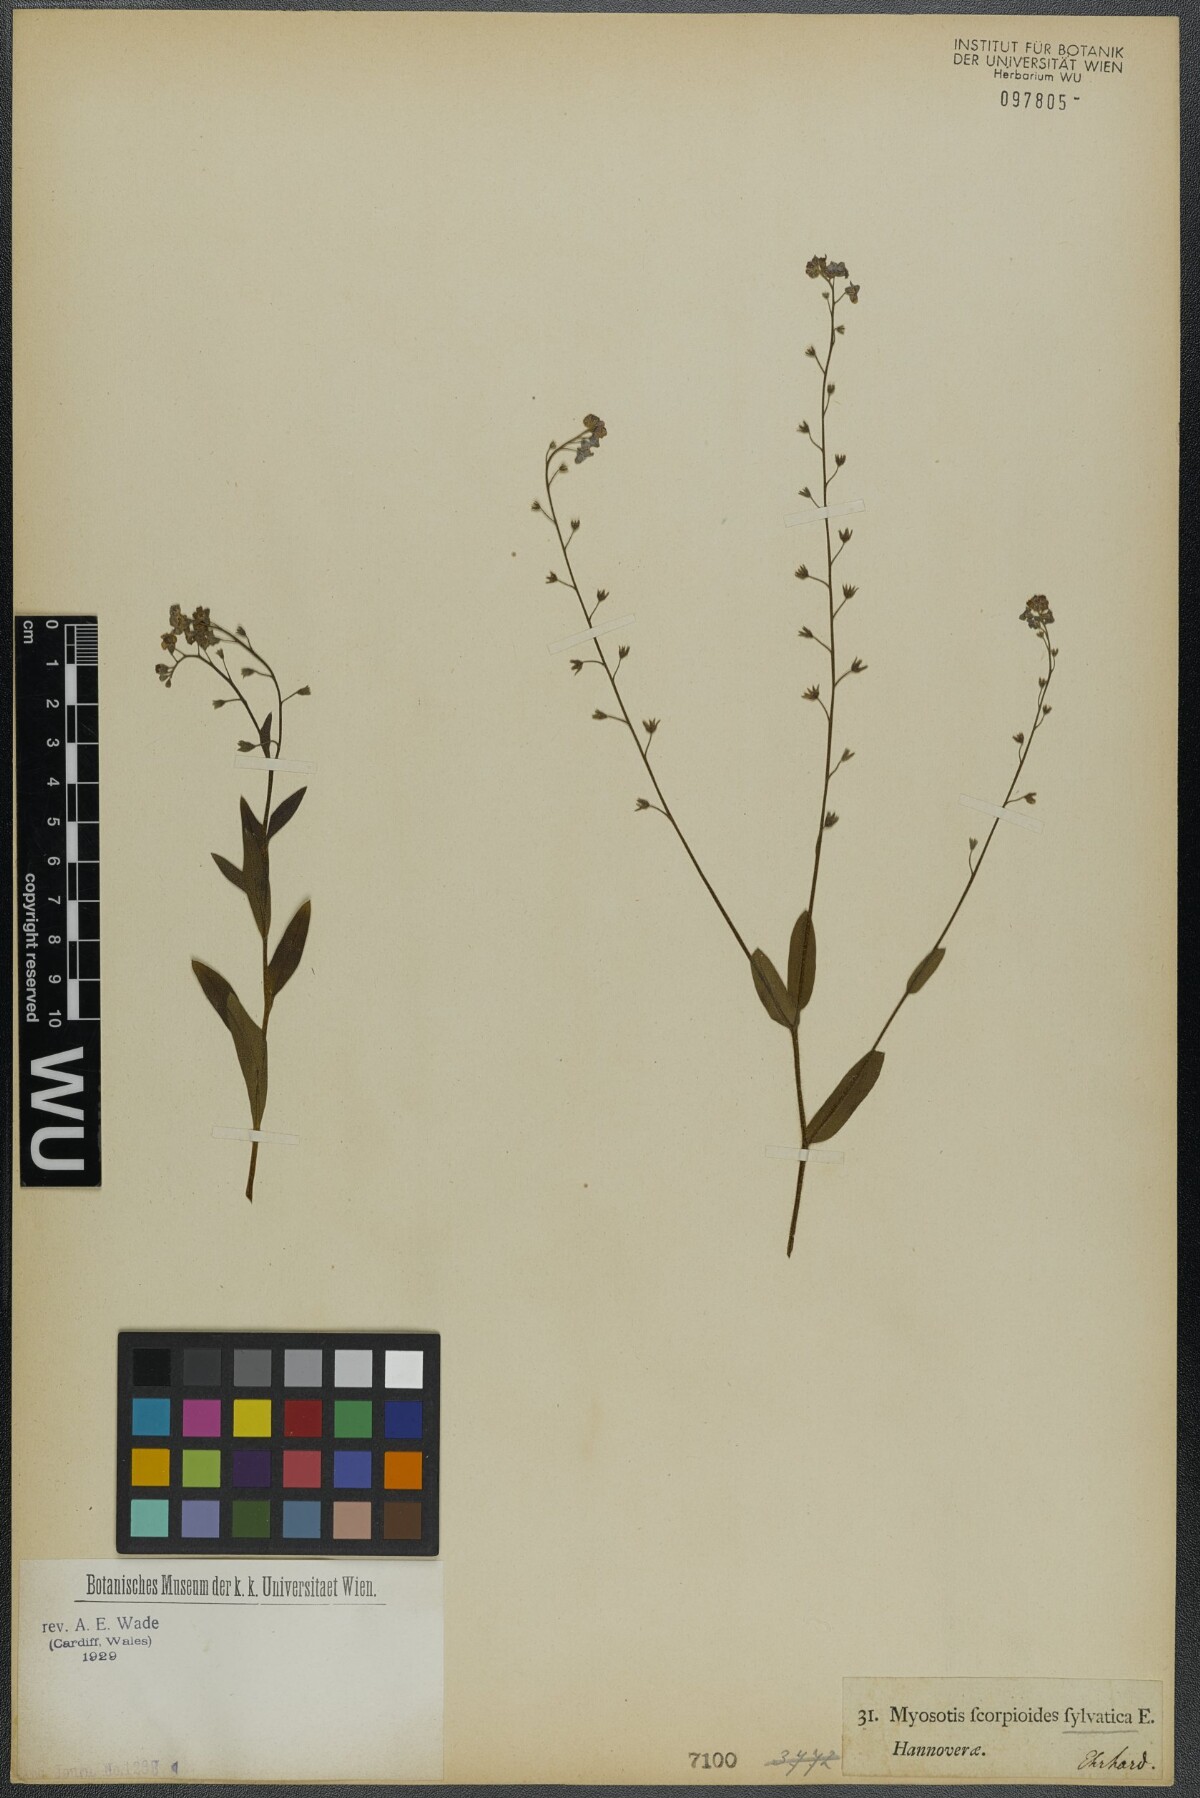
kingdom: Plantae
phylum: Tracheophyta
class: Magnoliopsida
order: Boraginales
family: Boraginaceae
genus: Myosotis
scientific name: Myosotis sylvatica
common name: Wood forget-me-not
